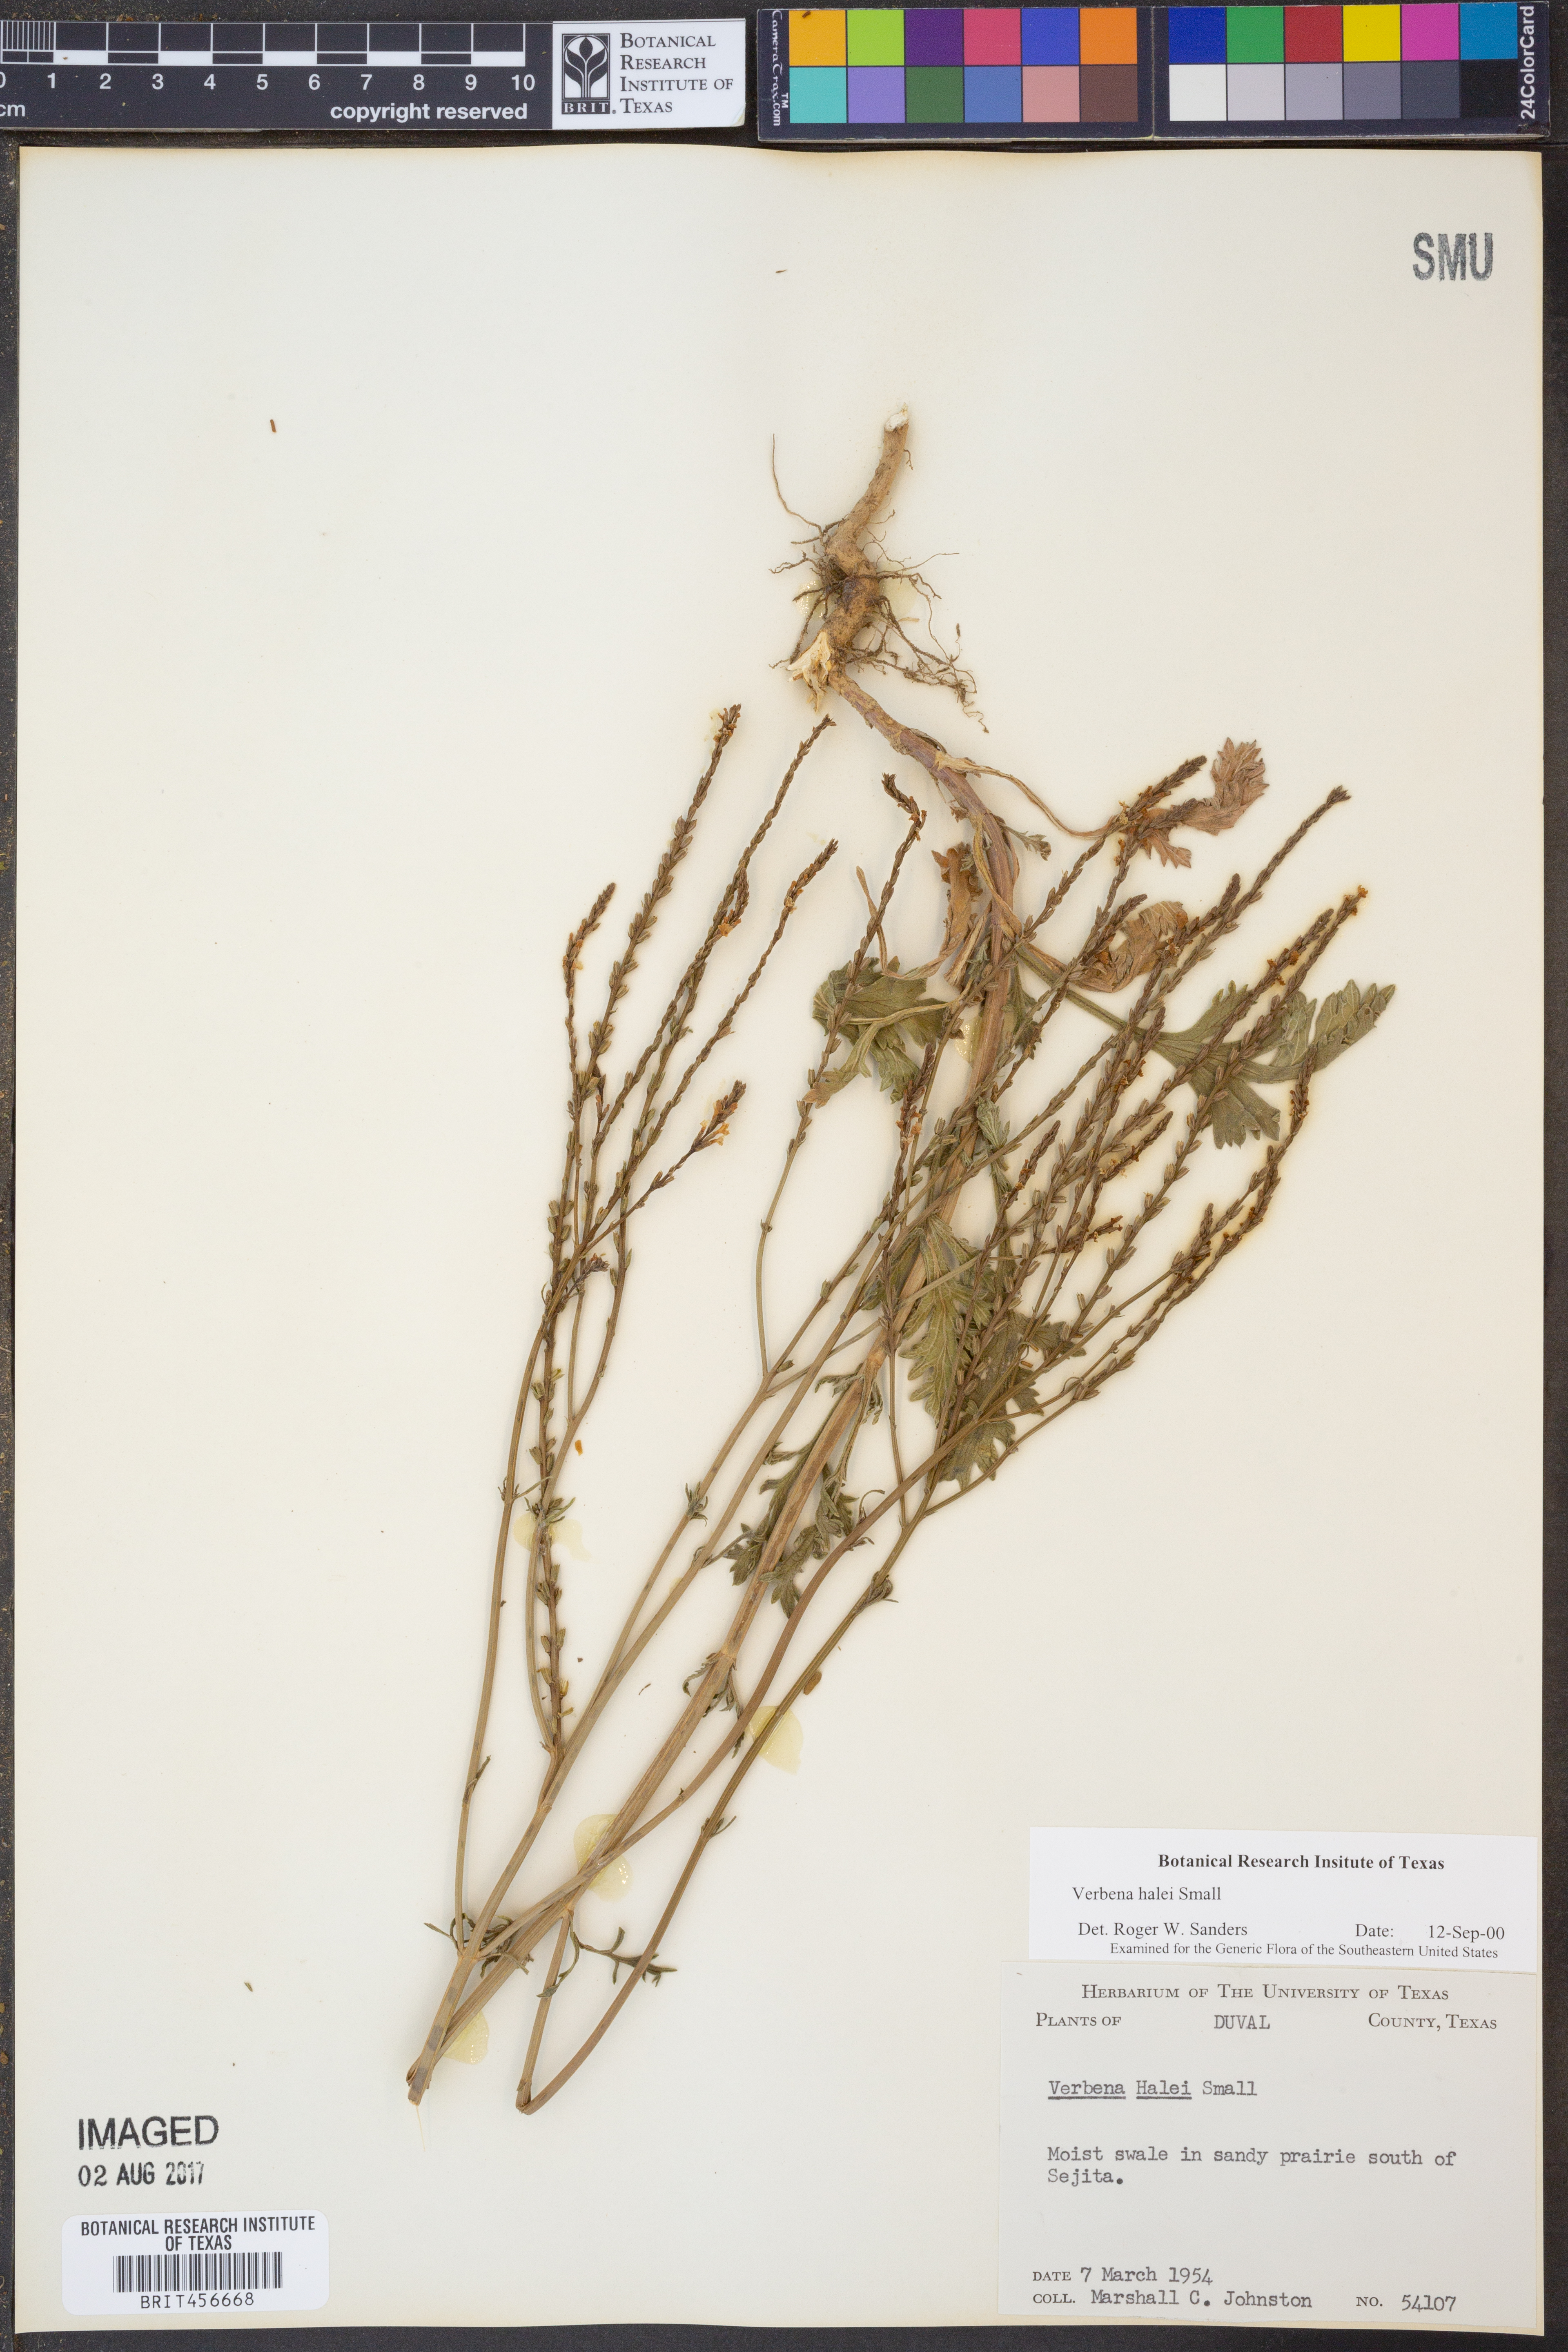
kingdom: Plantae
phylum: Tracheophyta
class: Magnoliopsida
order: Lamiales
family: Verbenaceae
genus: Verbena
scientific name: Verbena halei
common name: Texas vervain
